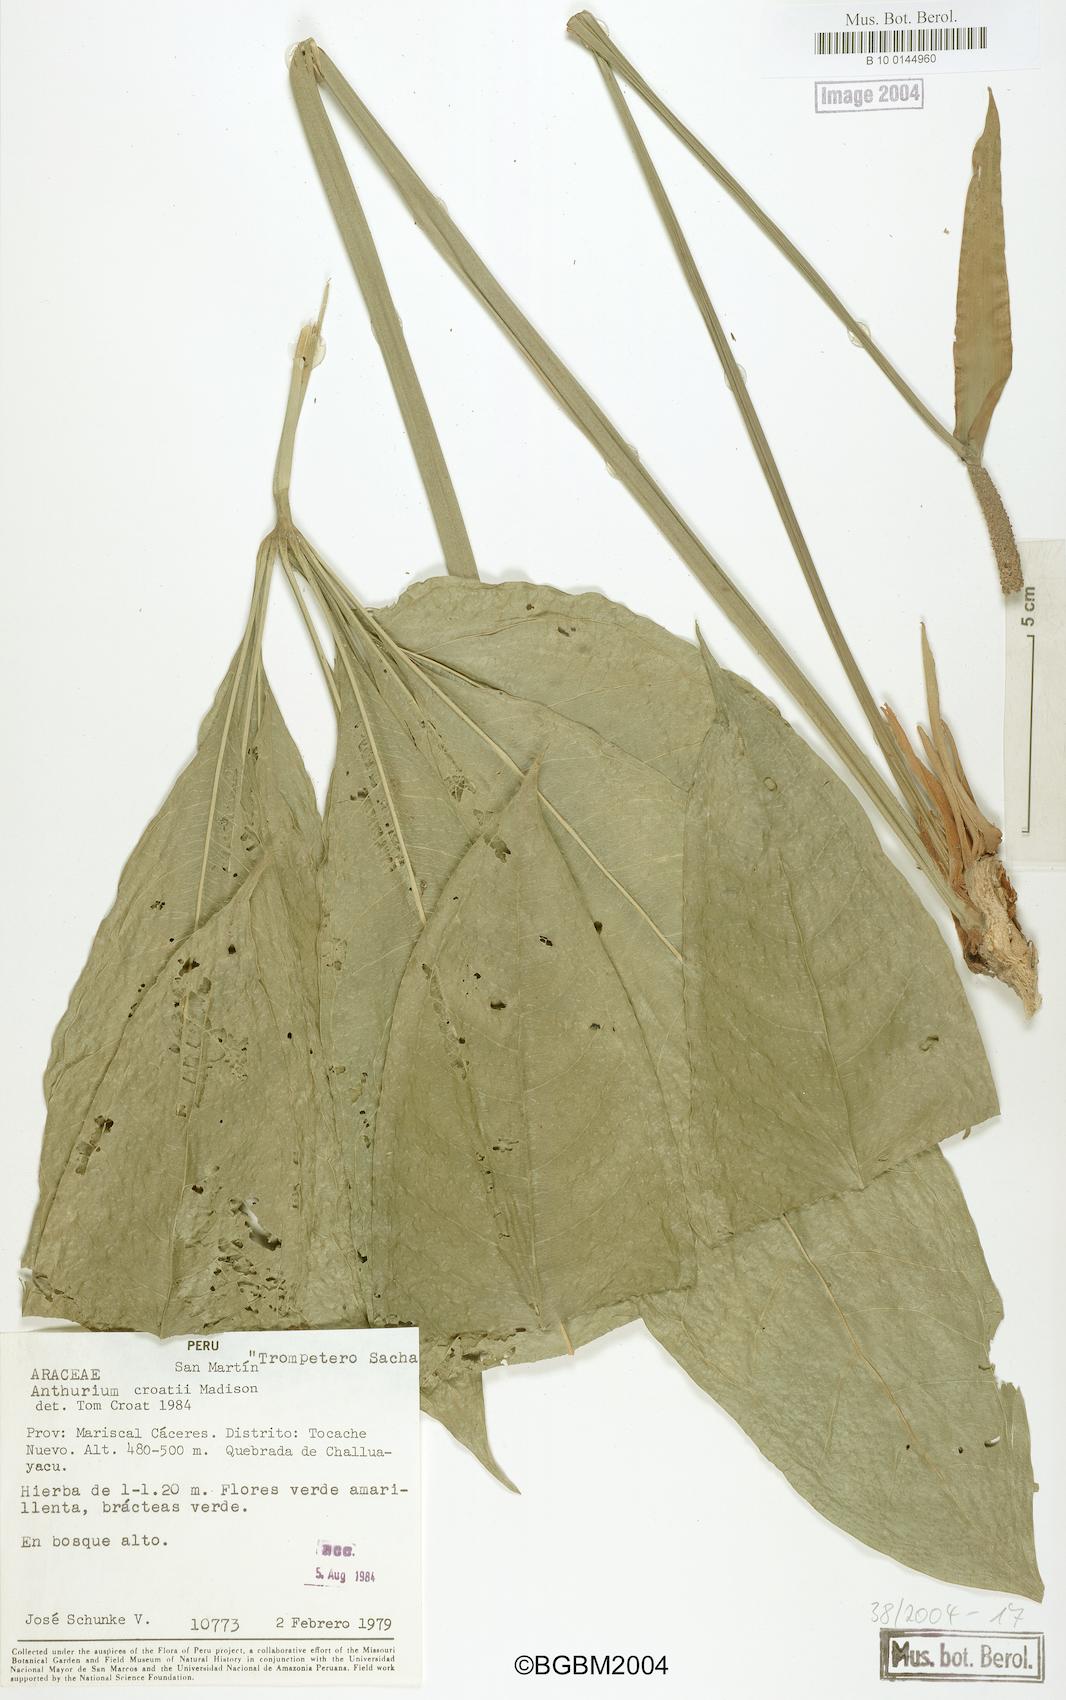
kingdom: Plantae
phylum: Tracheophyta
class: Liliopsida
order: Alismatales
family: Araceae
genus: Anthurium
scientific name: Anthurium croatii
